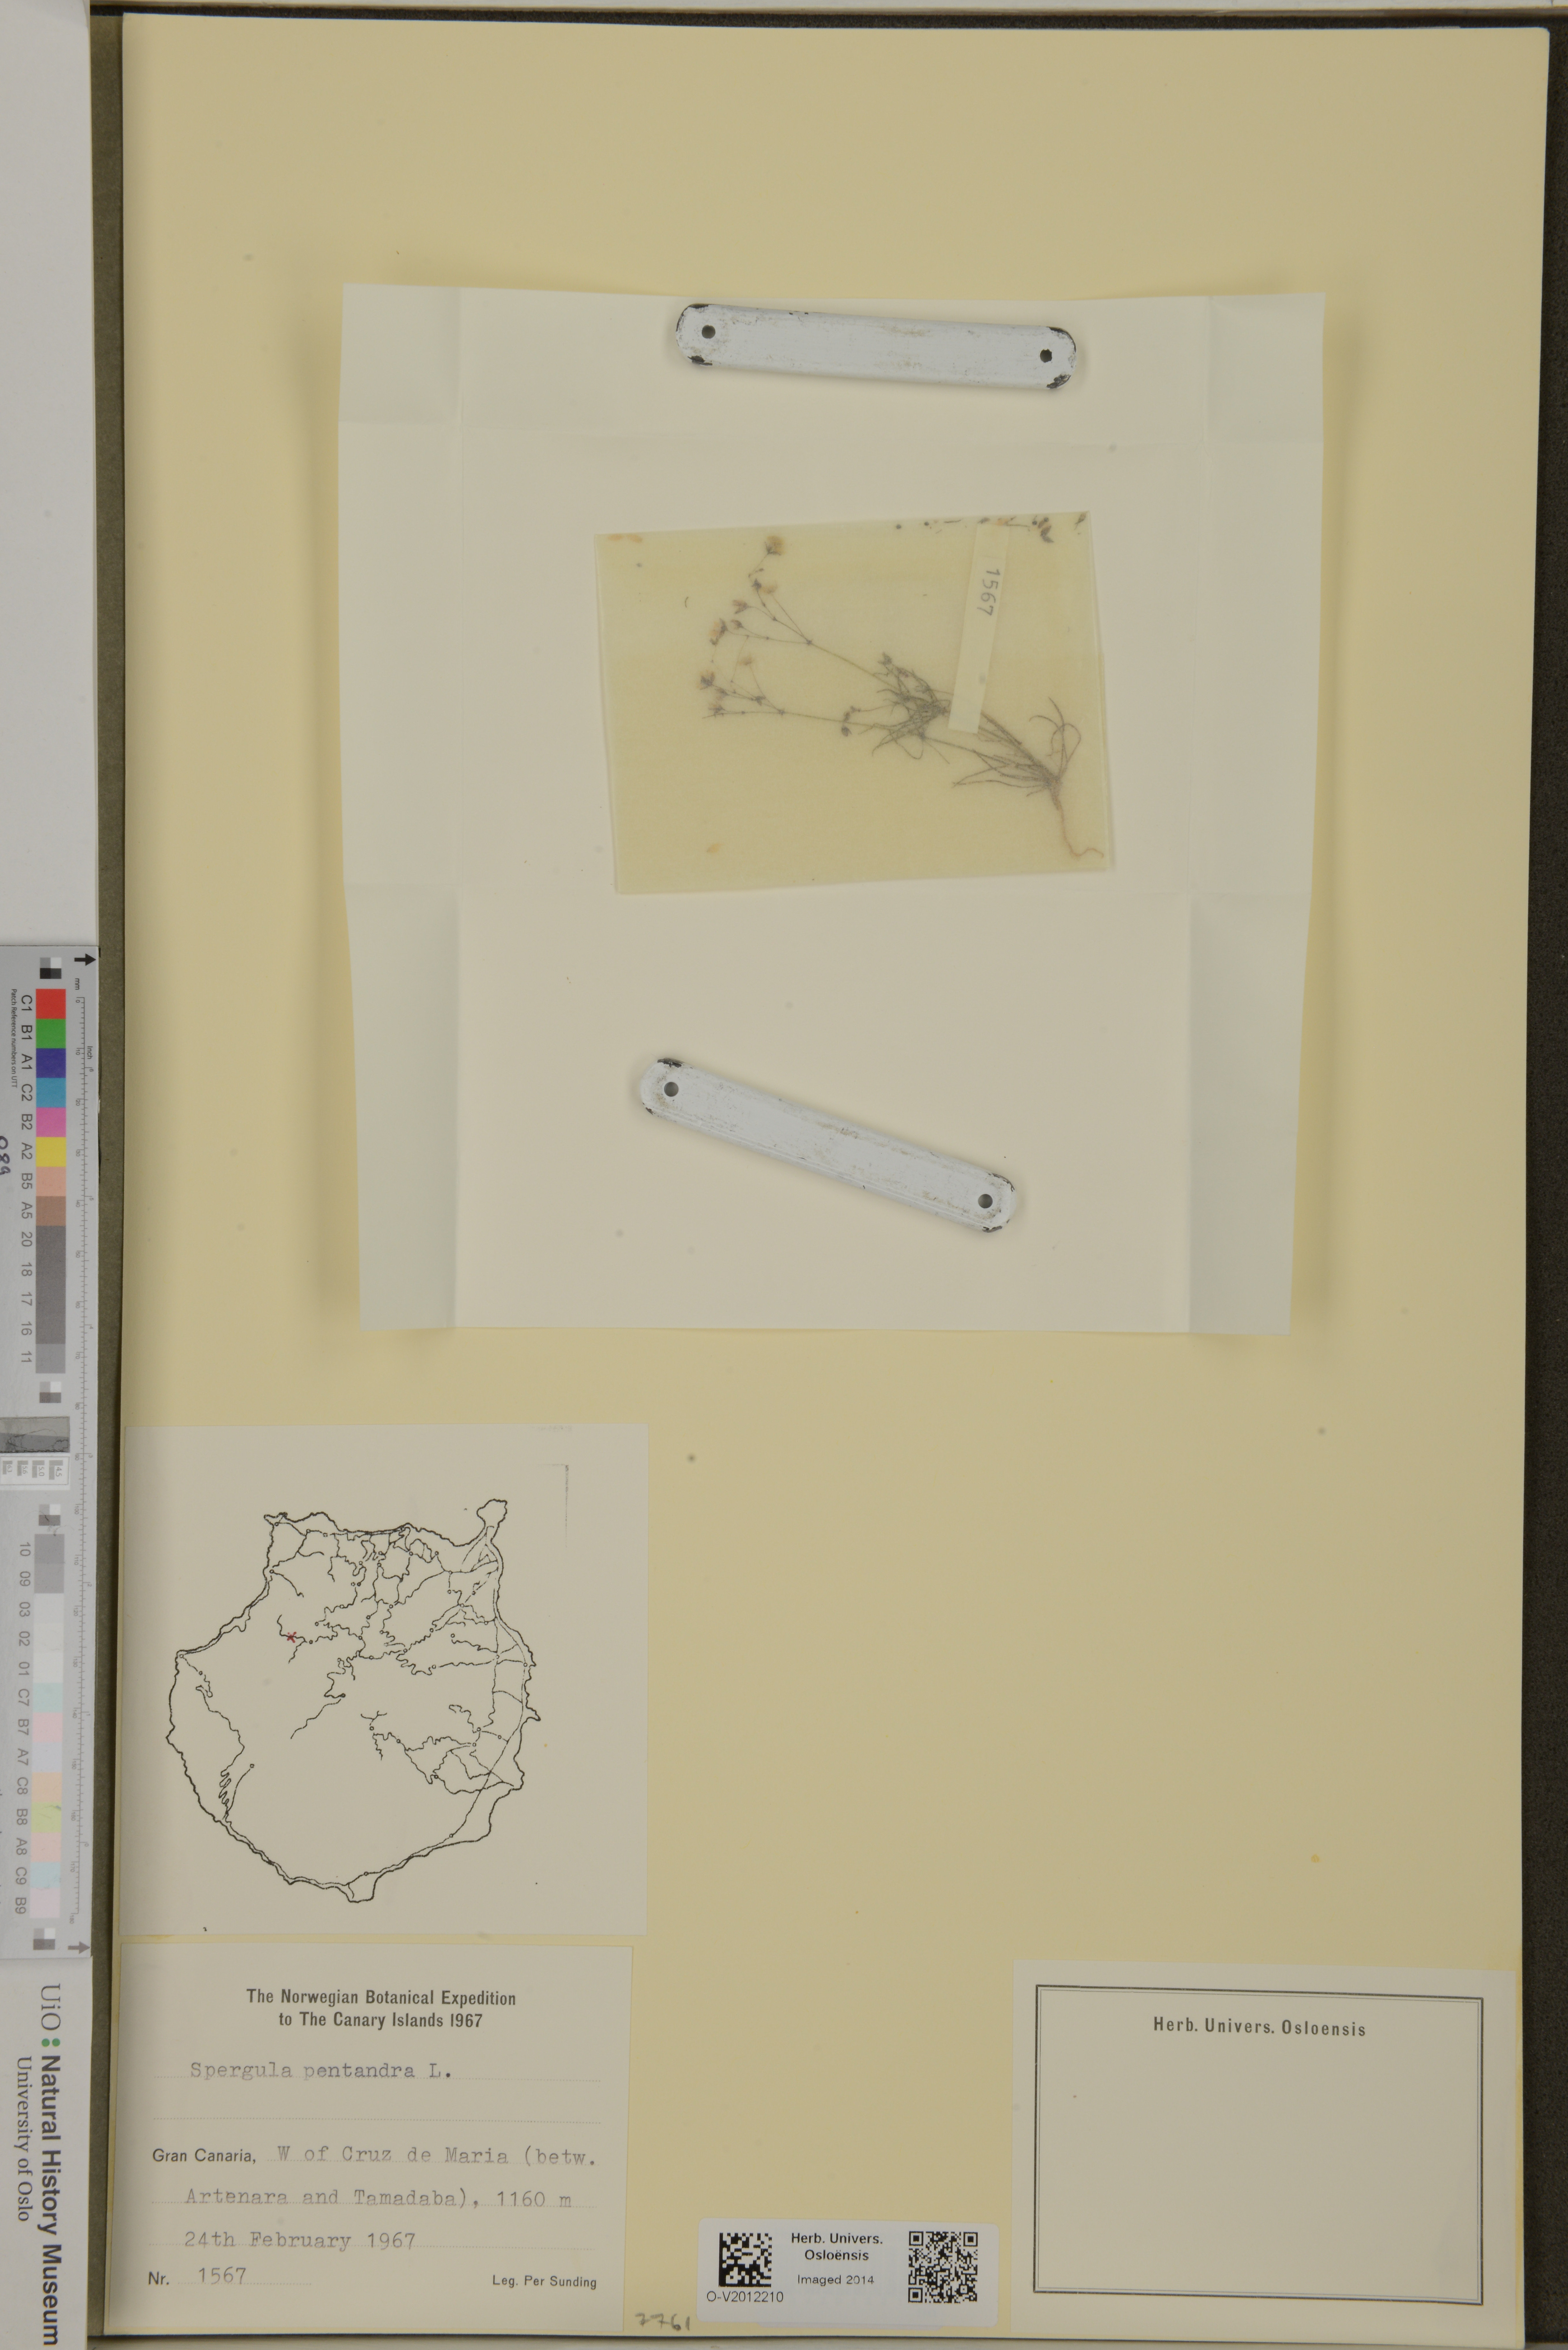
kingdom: Plantae
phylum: Tracheophyta
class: Magnoliopsida
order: Caryophyllales
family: Caryophyllaceae
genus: Spergula
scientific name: Spergula pentandra
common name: Wingstem spurry
